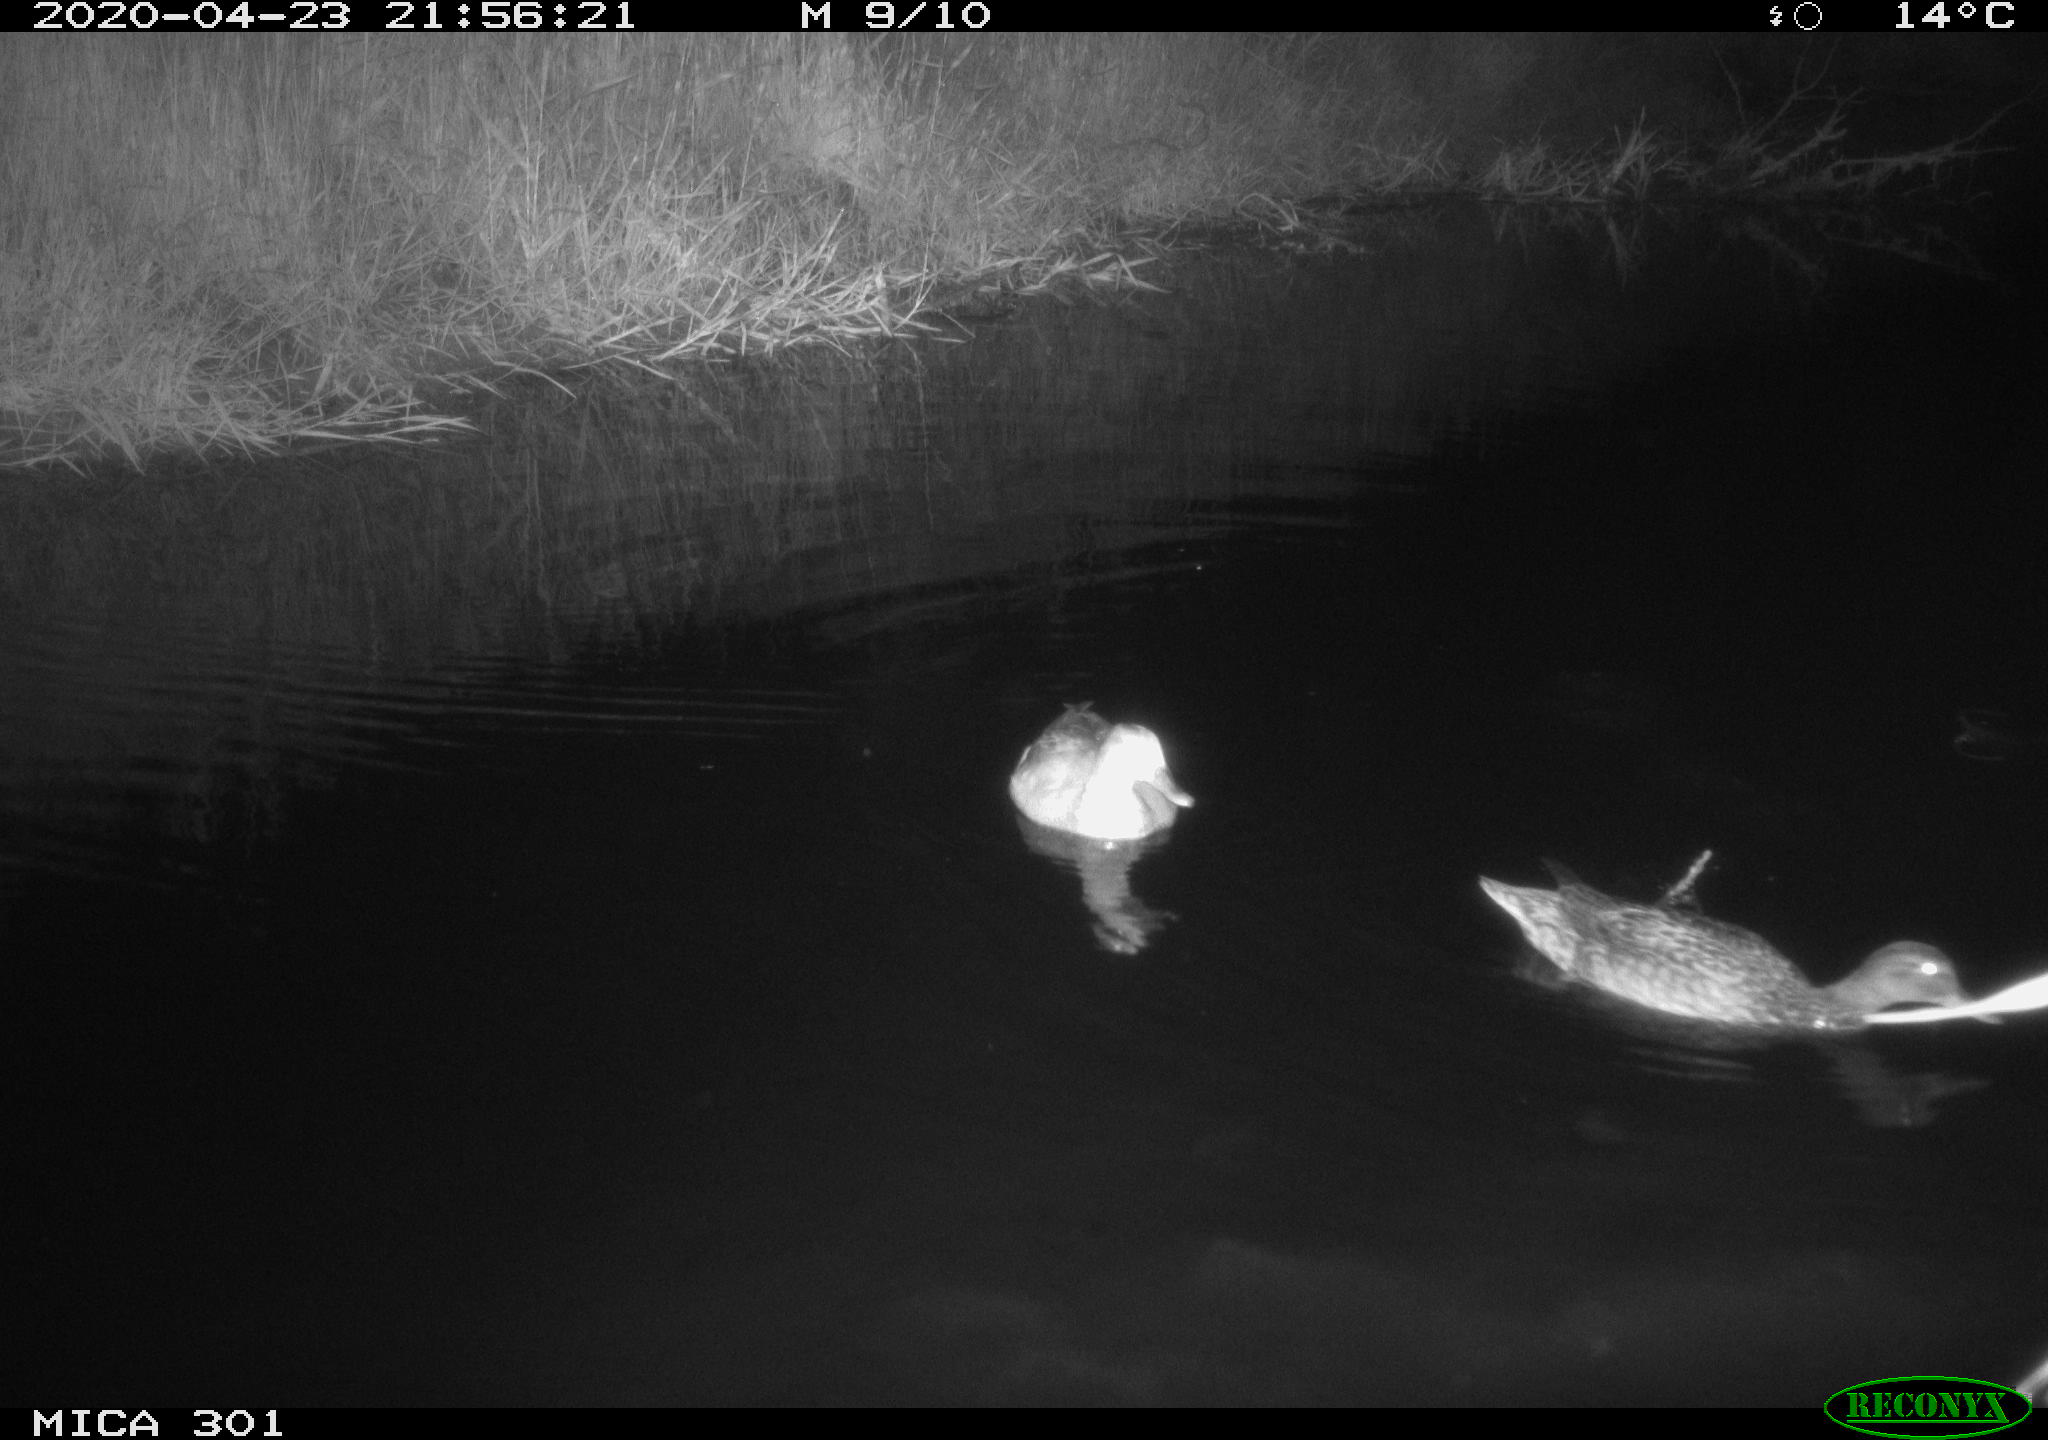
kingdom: Animalia
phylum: Chordata
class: Aves
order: Anseriformes
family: Anatidae
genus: Mareca
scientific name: Mareca strepera
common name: Gadwall
